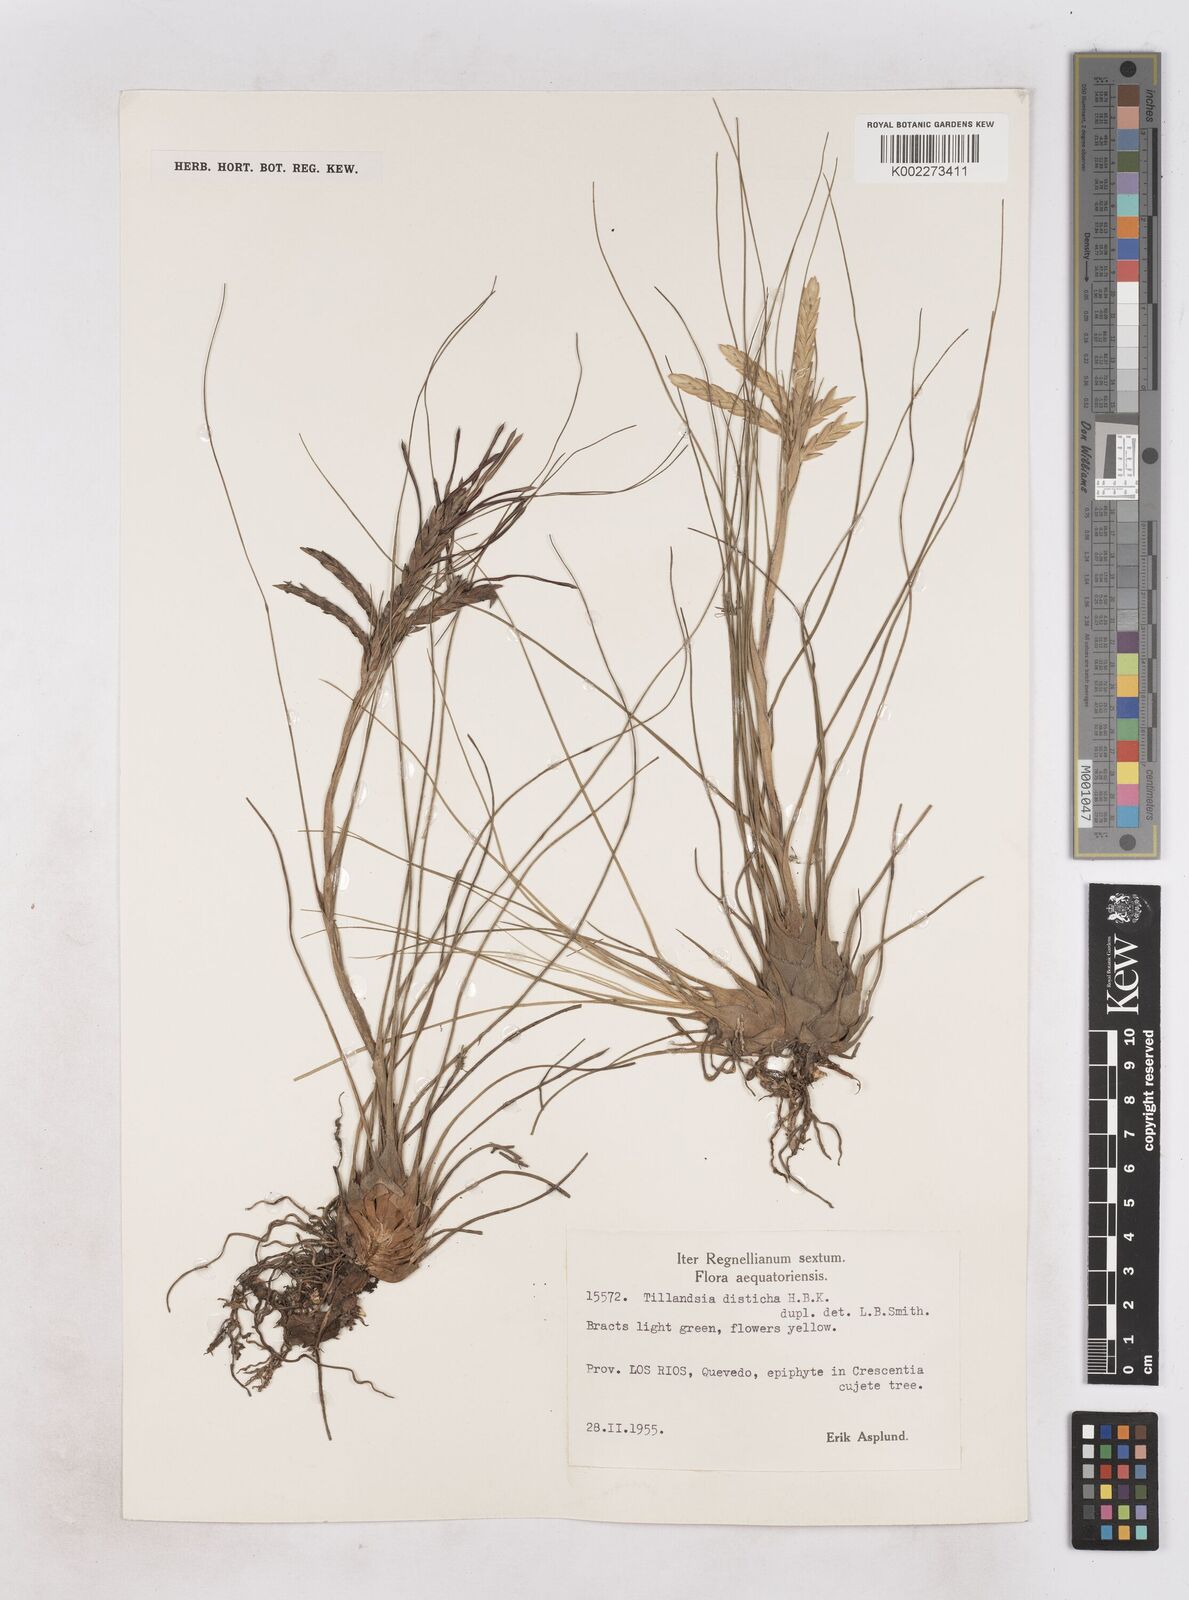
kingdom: Plantae
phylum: Tracheophyta
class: Liliopsida
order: Poales
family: Bromeliaceae
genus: Tillandsia
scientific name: Tillandsia
